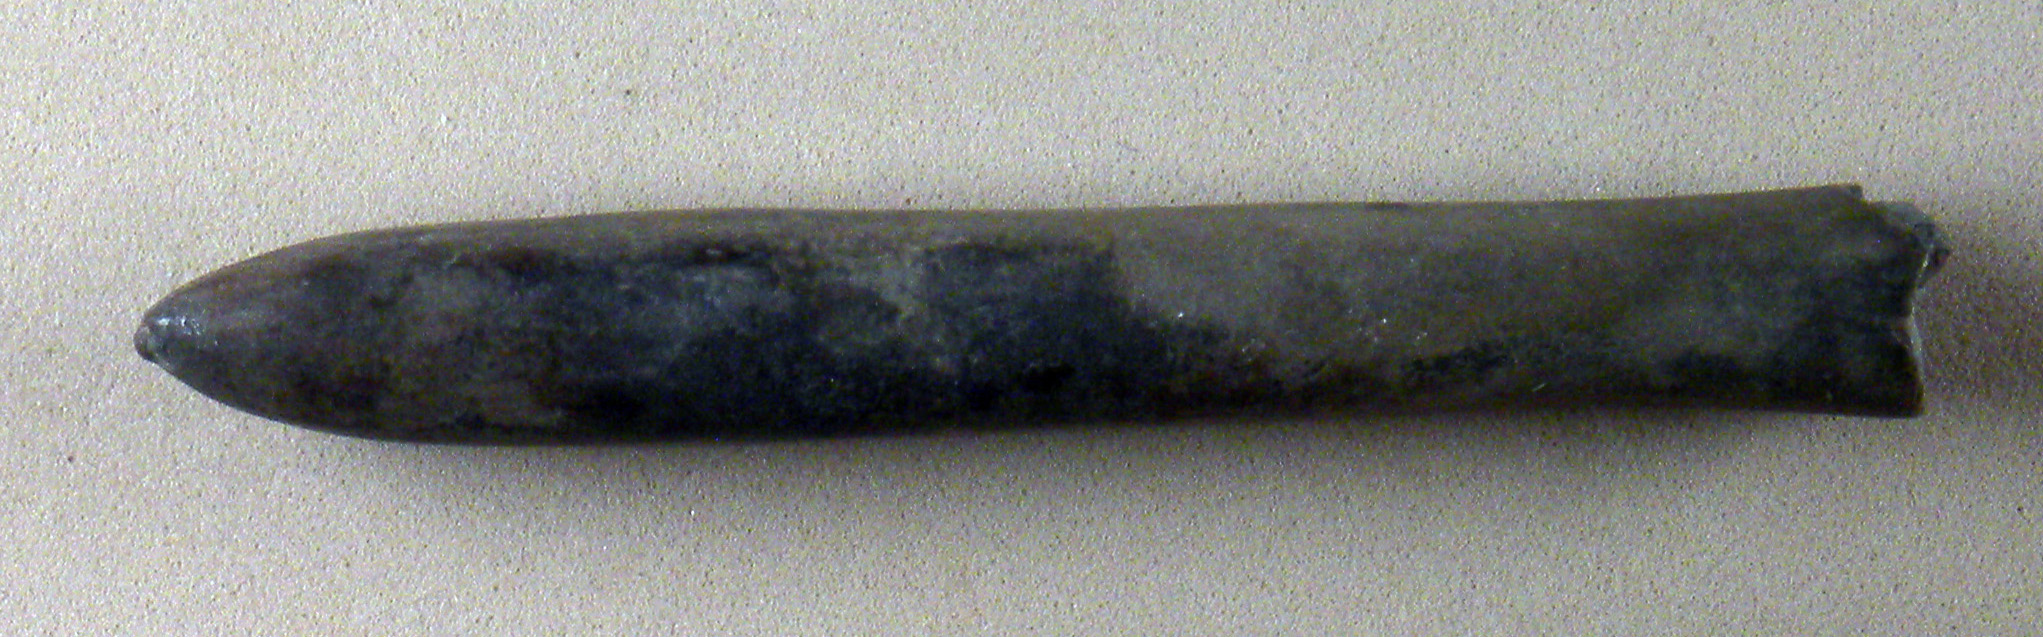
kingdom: Animalia
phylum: Mollusca
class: Cephalopoda
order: Belemnitida
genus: Gastrobelus
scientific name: Gastrobelus
